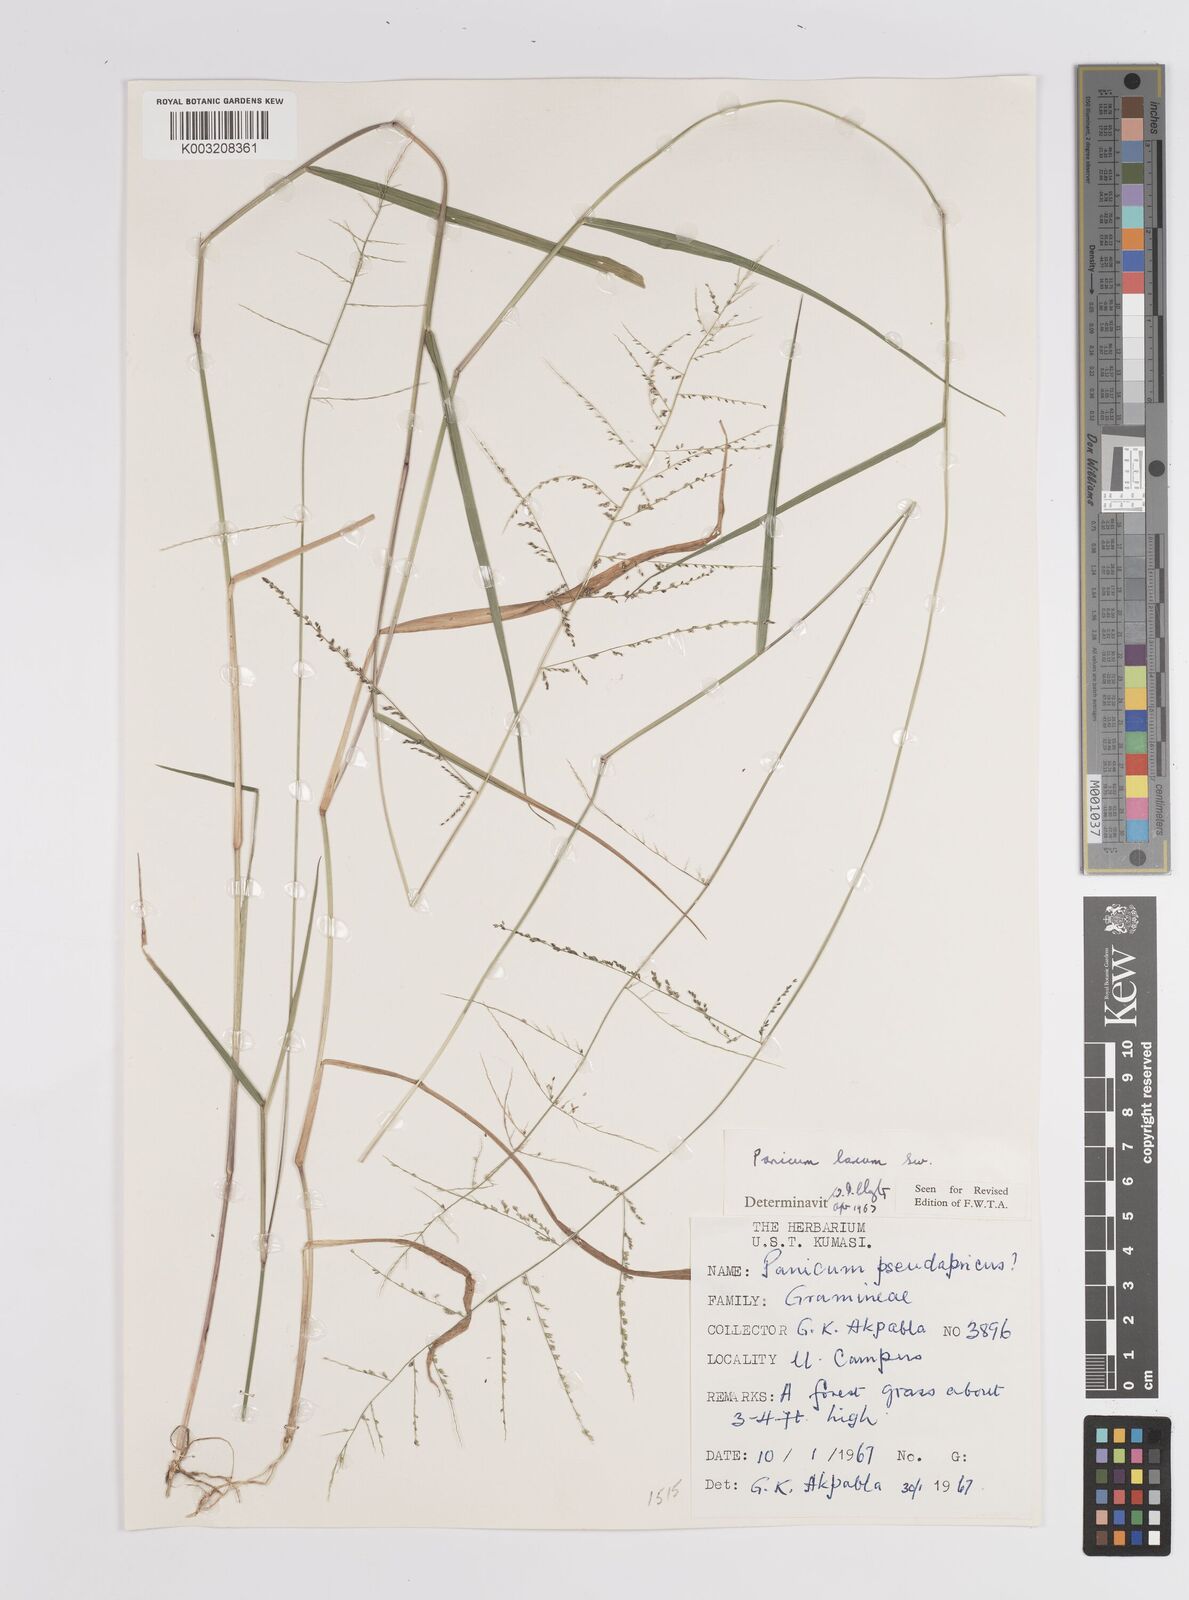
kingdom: Plantae
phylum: Tracheophyta
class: Liliopsida
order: Poales
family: Poaceae
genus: Steinchisma
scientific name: Steinchisma laxum
